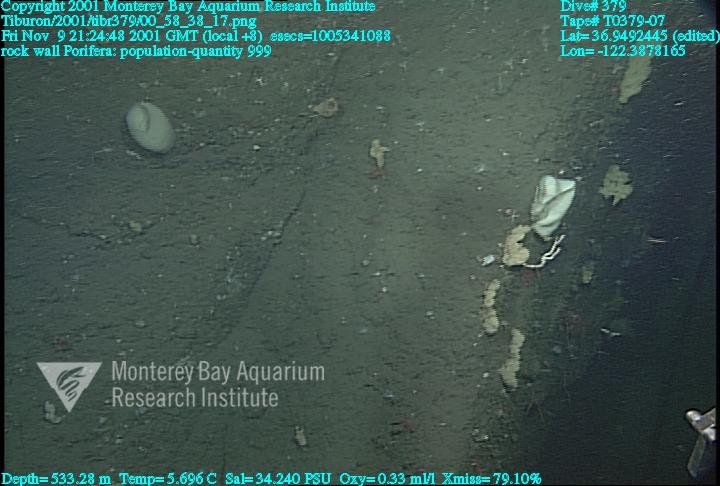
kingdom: Animalia
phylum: Porifera
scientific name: Porifera
